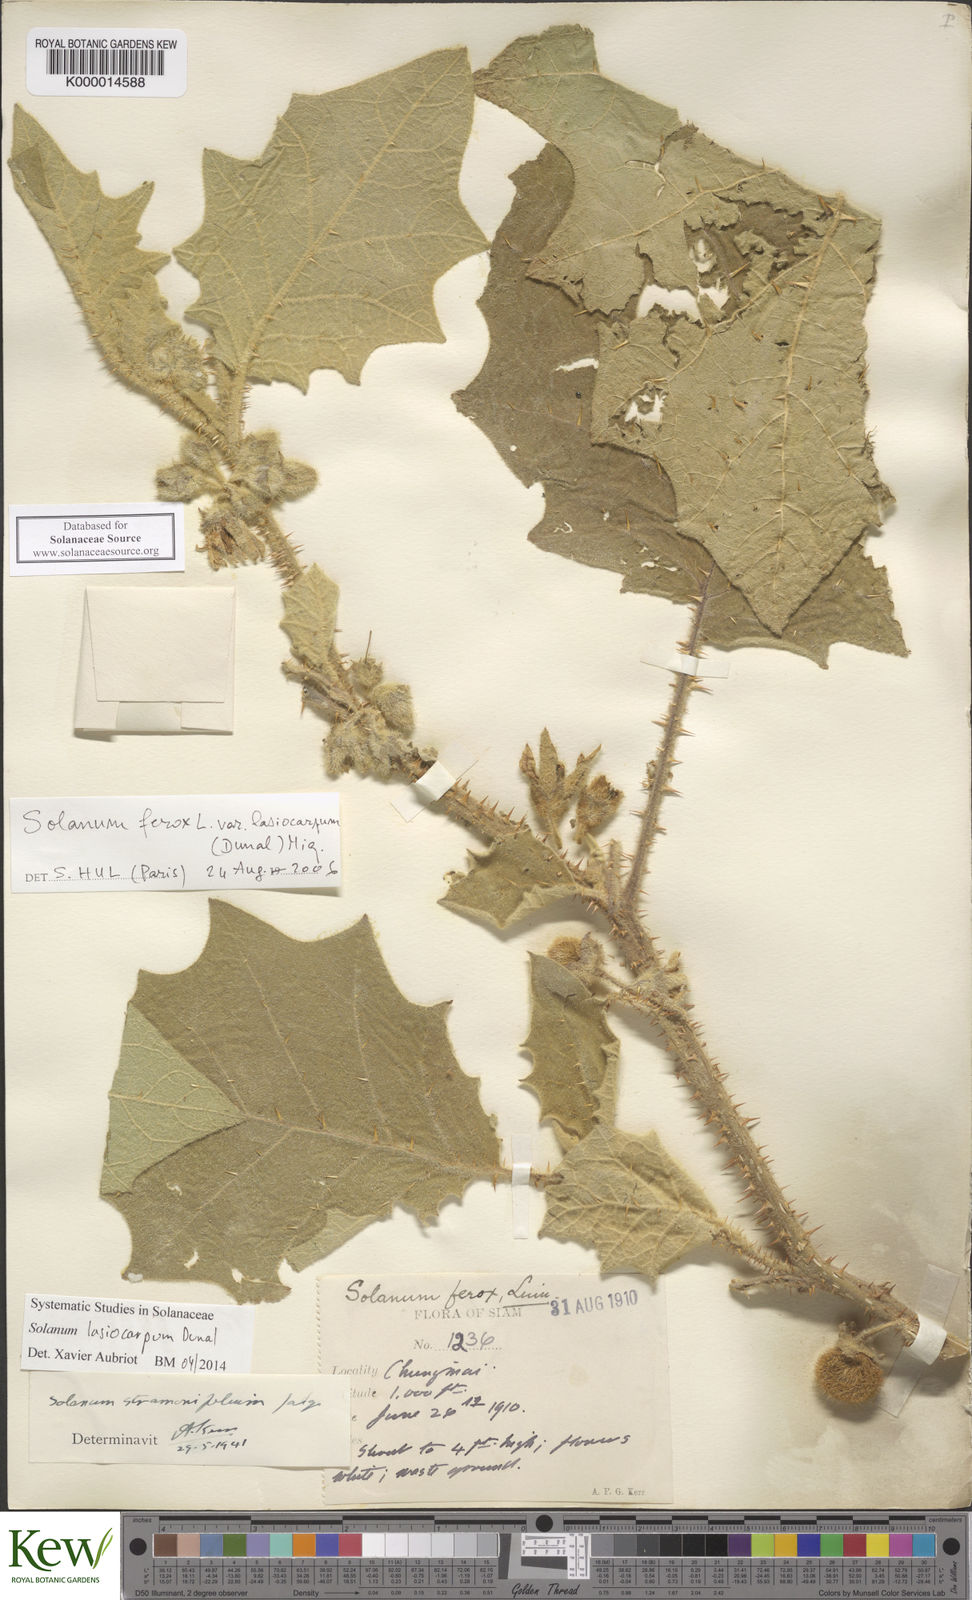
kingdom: Plantae
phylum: Tracheophyta
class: Magnoliopsida
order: Solanales
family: Solanaceae
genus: Solanum
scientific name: Solanum lasiocarpum
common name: Indian nightshade
